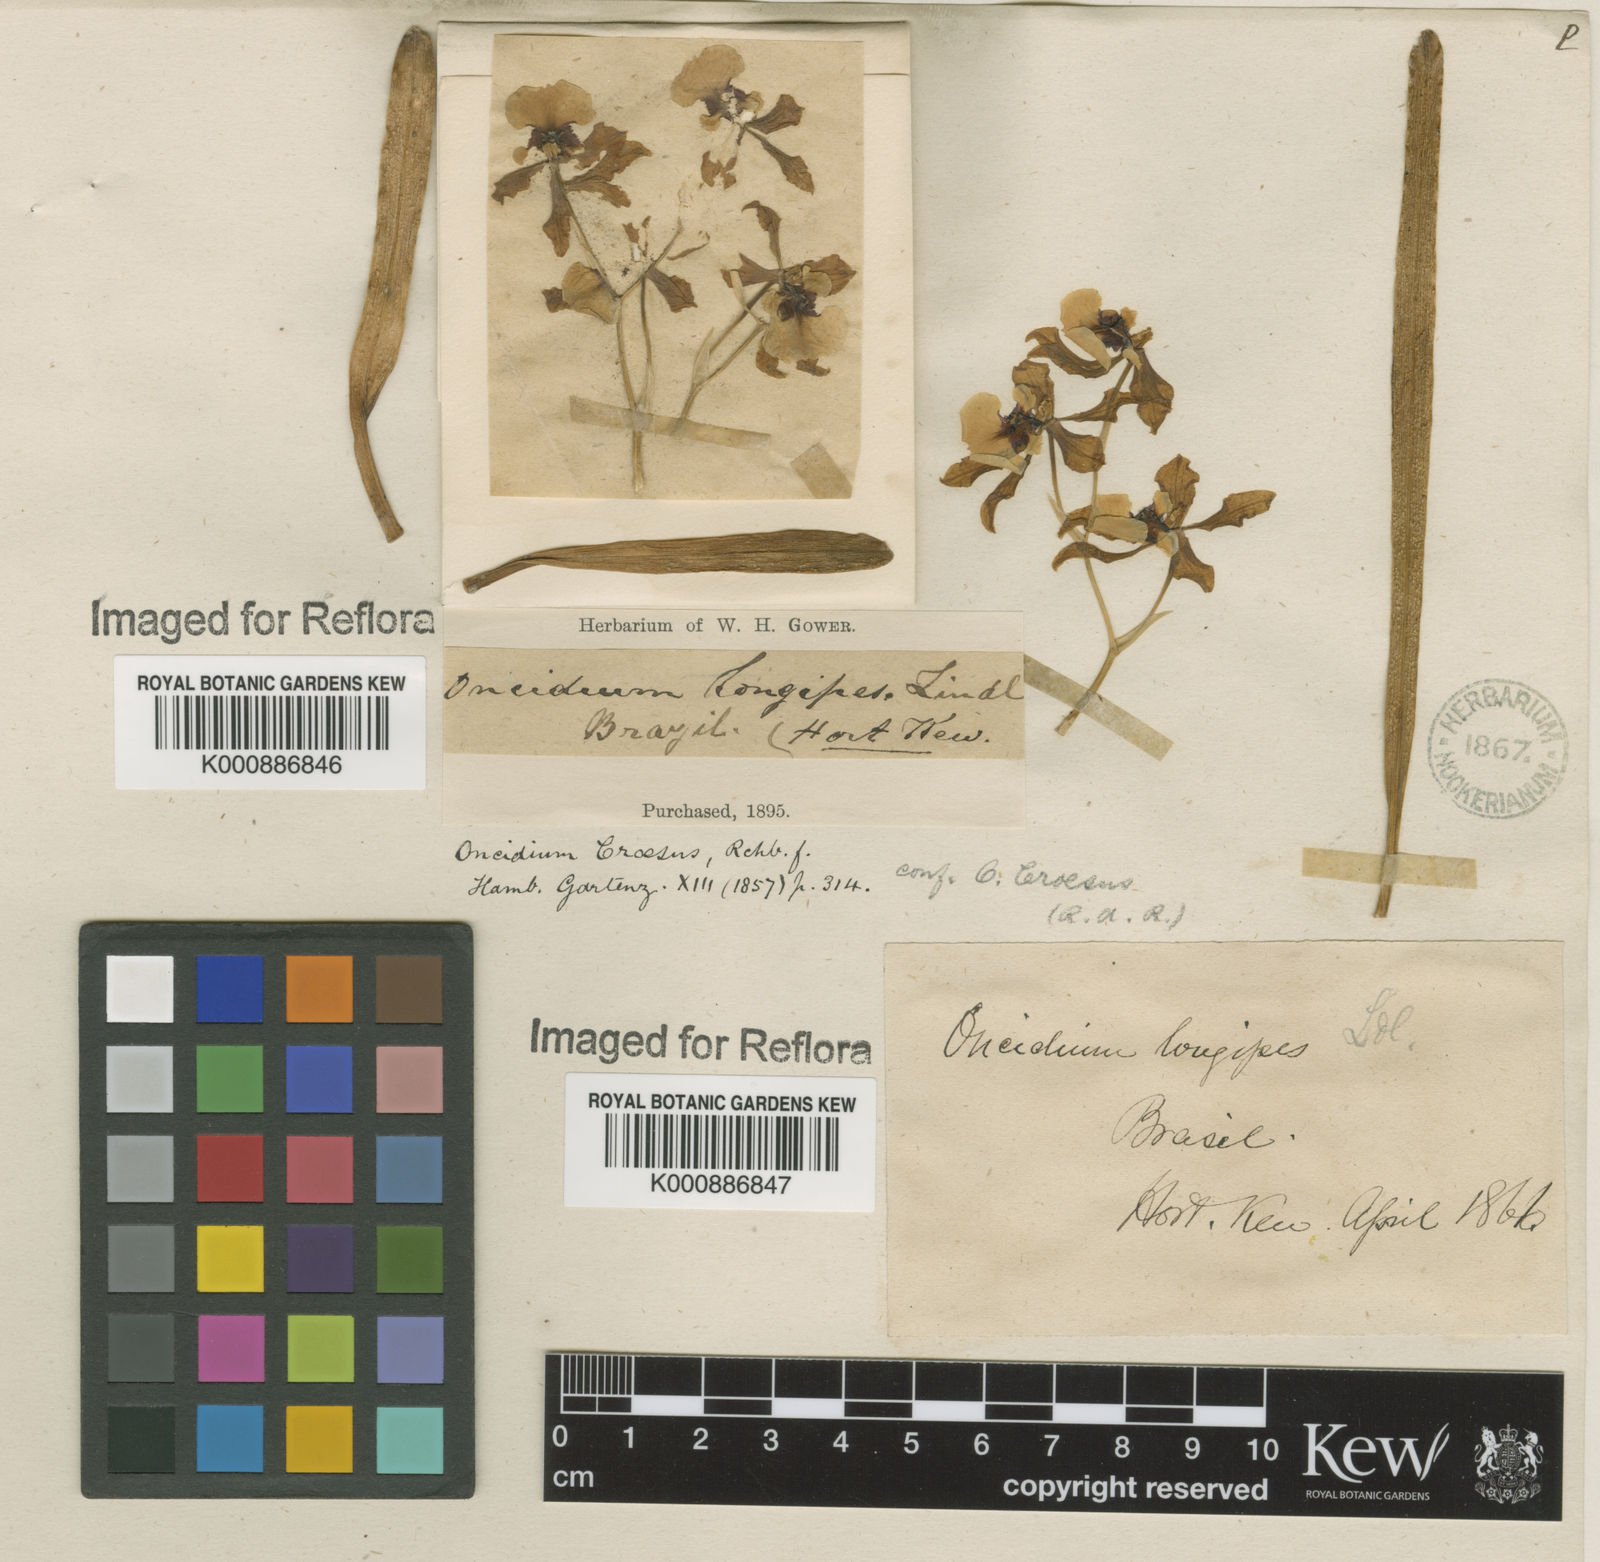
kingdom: Plantae
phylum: Tracheophyta
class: Liliopsida
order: Asparagales
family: Orchidaceae
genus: Gomesa
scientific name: Gomesa croesus
